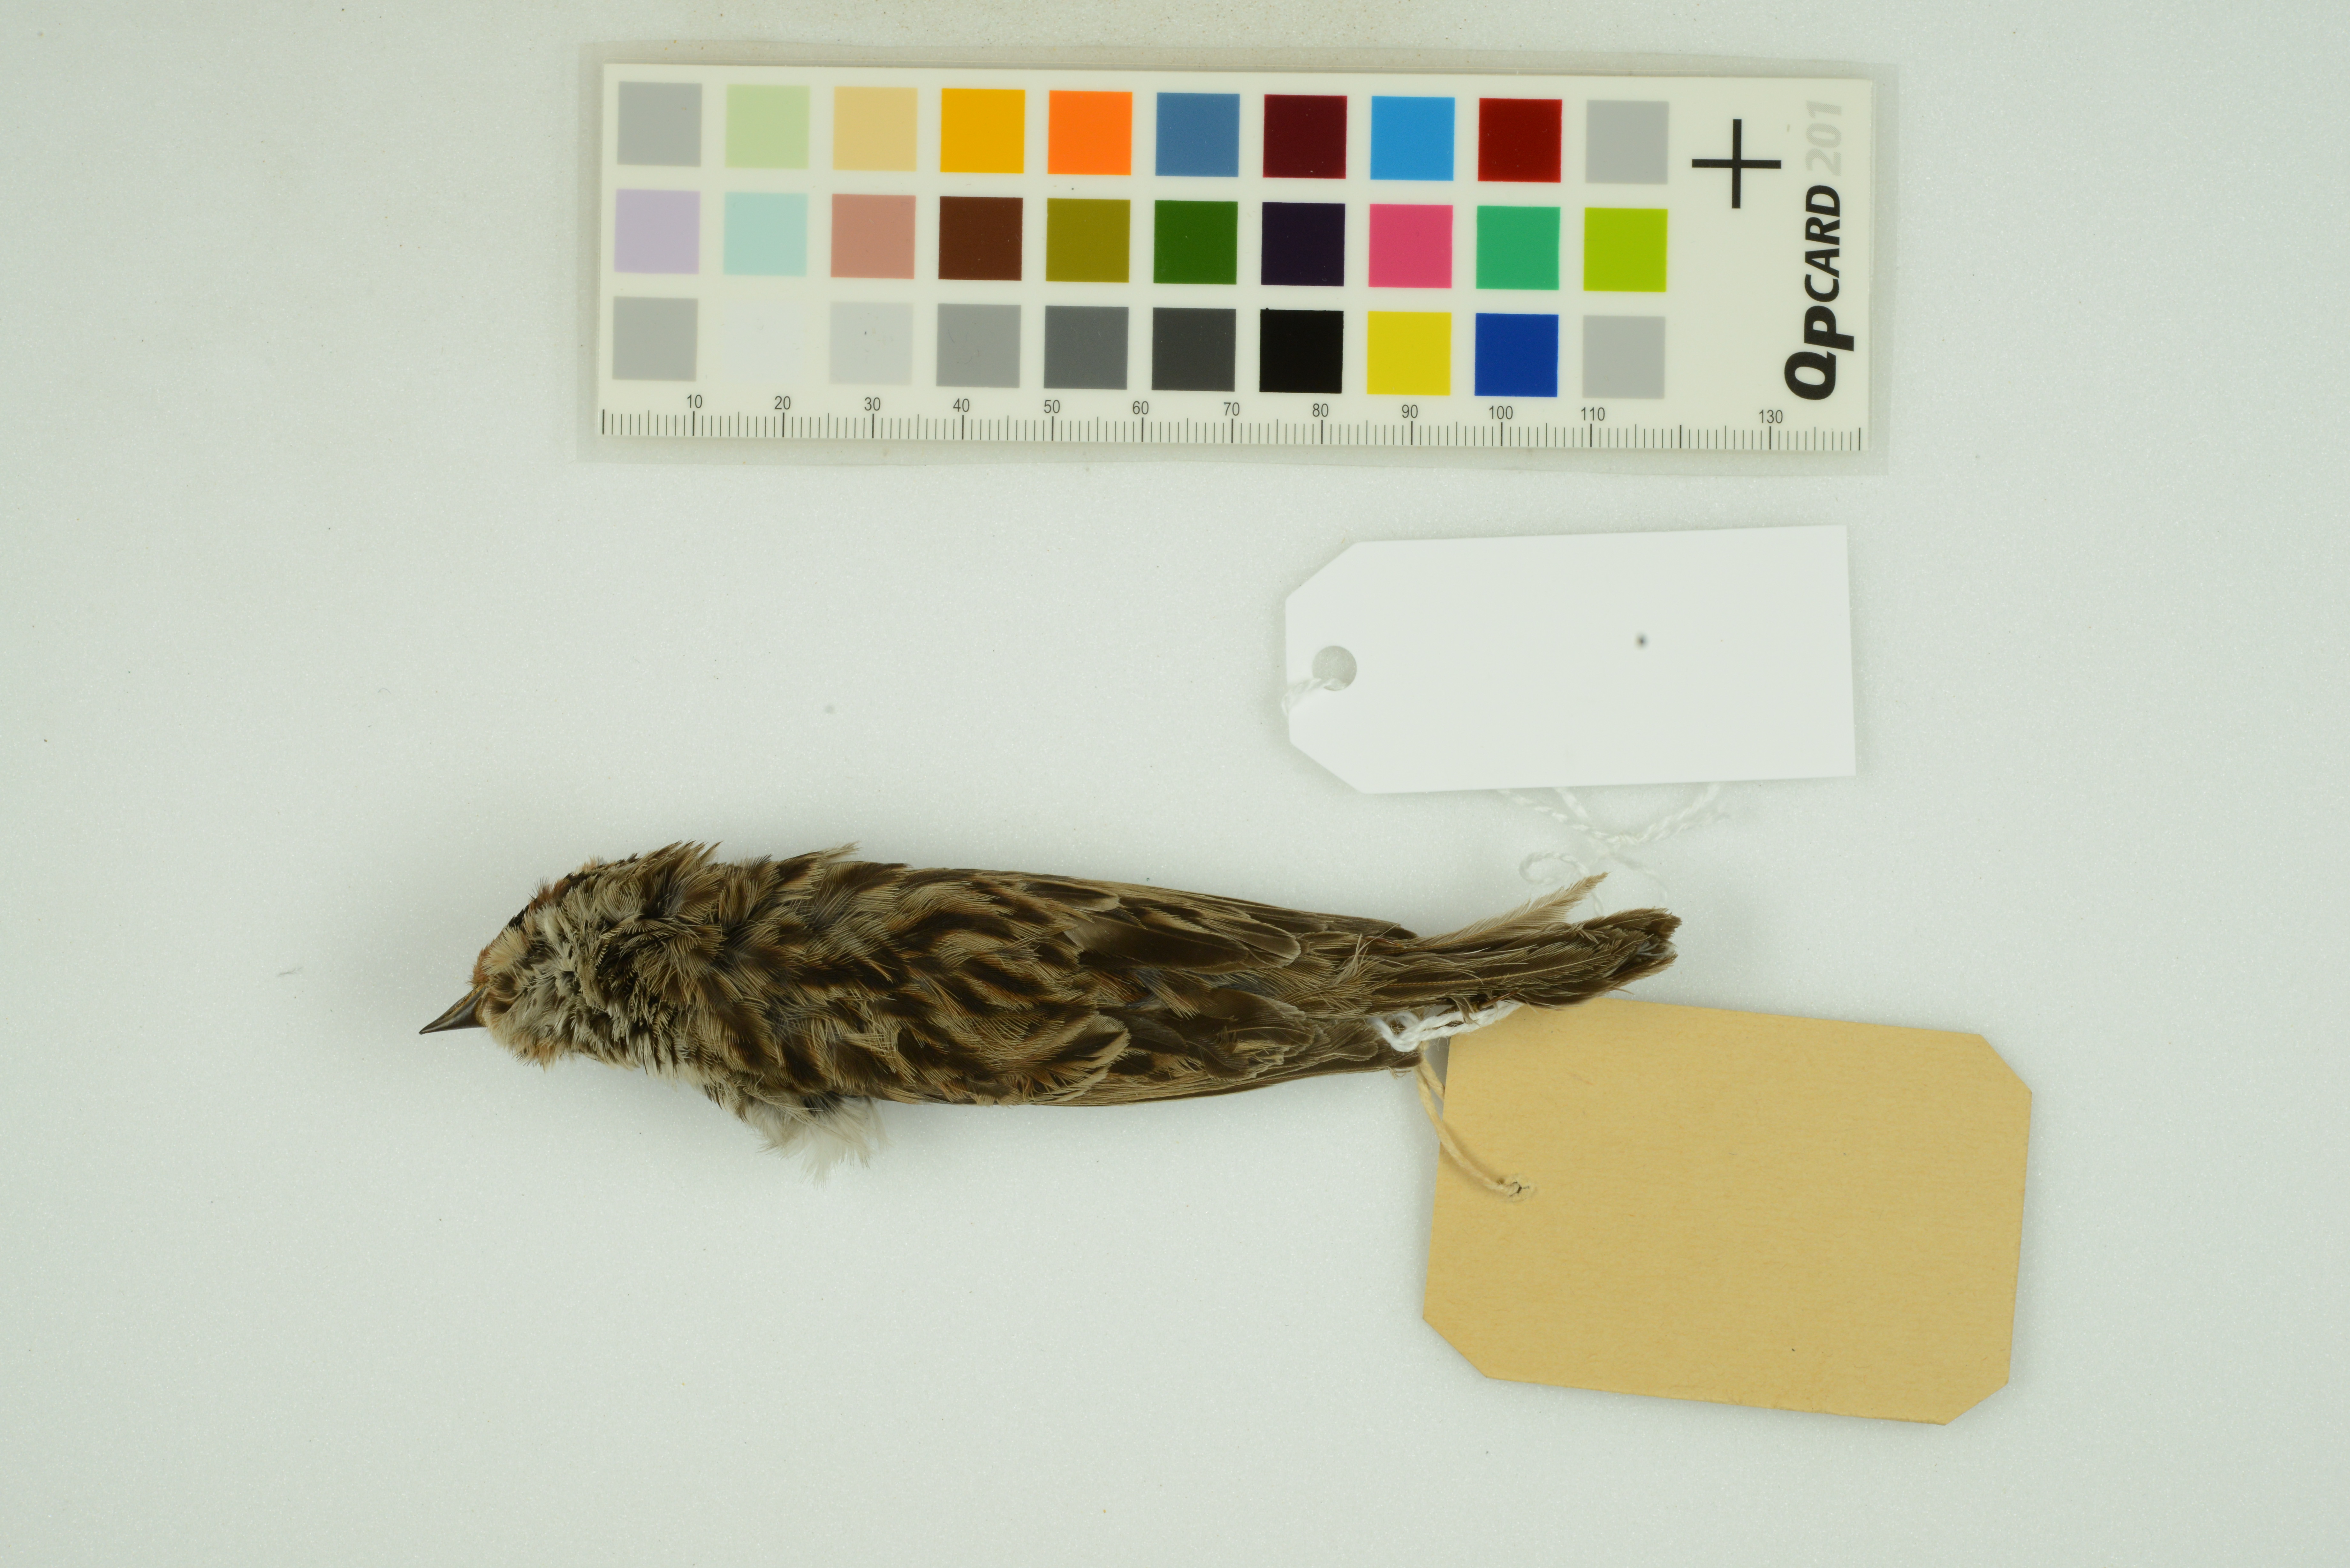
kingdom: Animalia
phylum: Chordata
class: Aves
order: Passeriformes
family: Emberizidae
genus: Emberiza
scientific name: Emberiza pusilla
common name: Little bunting
